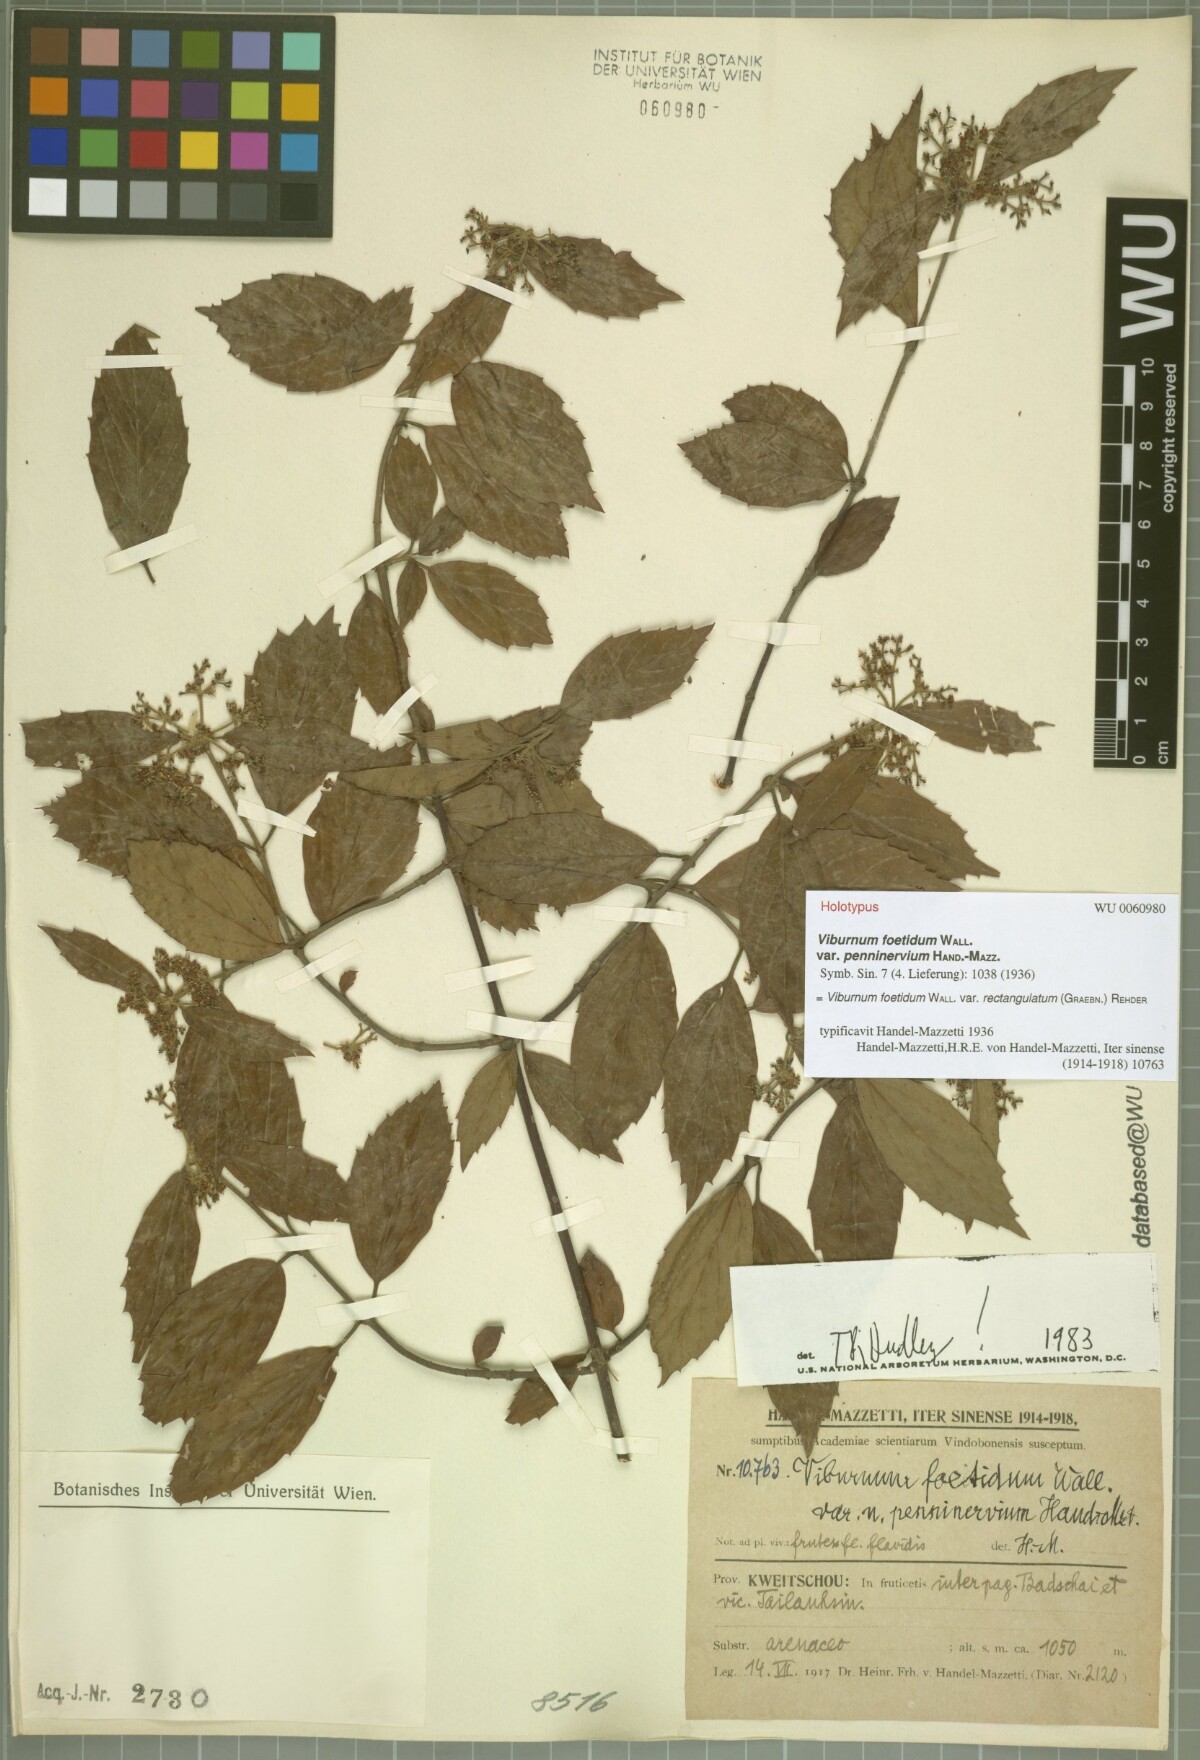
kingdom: Plantae
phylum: Tracheophyta
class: Magnoliopsida
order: Dipsacales
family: Viburnaceae
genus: Viburnum
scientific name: Viburnum foetidum
